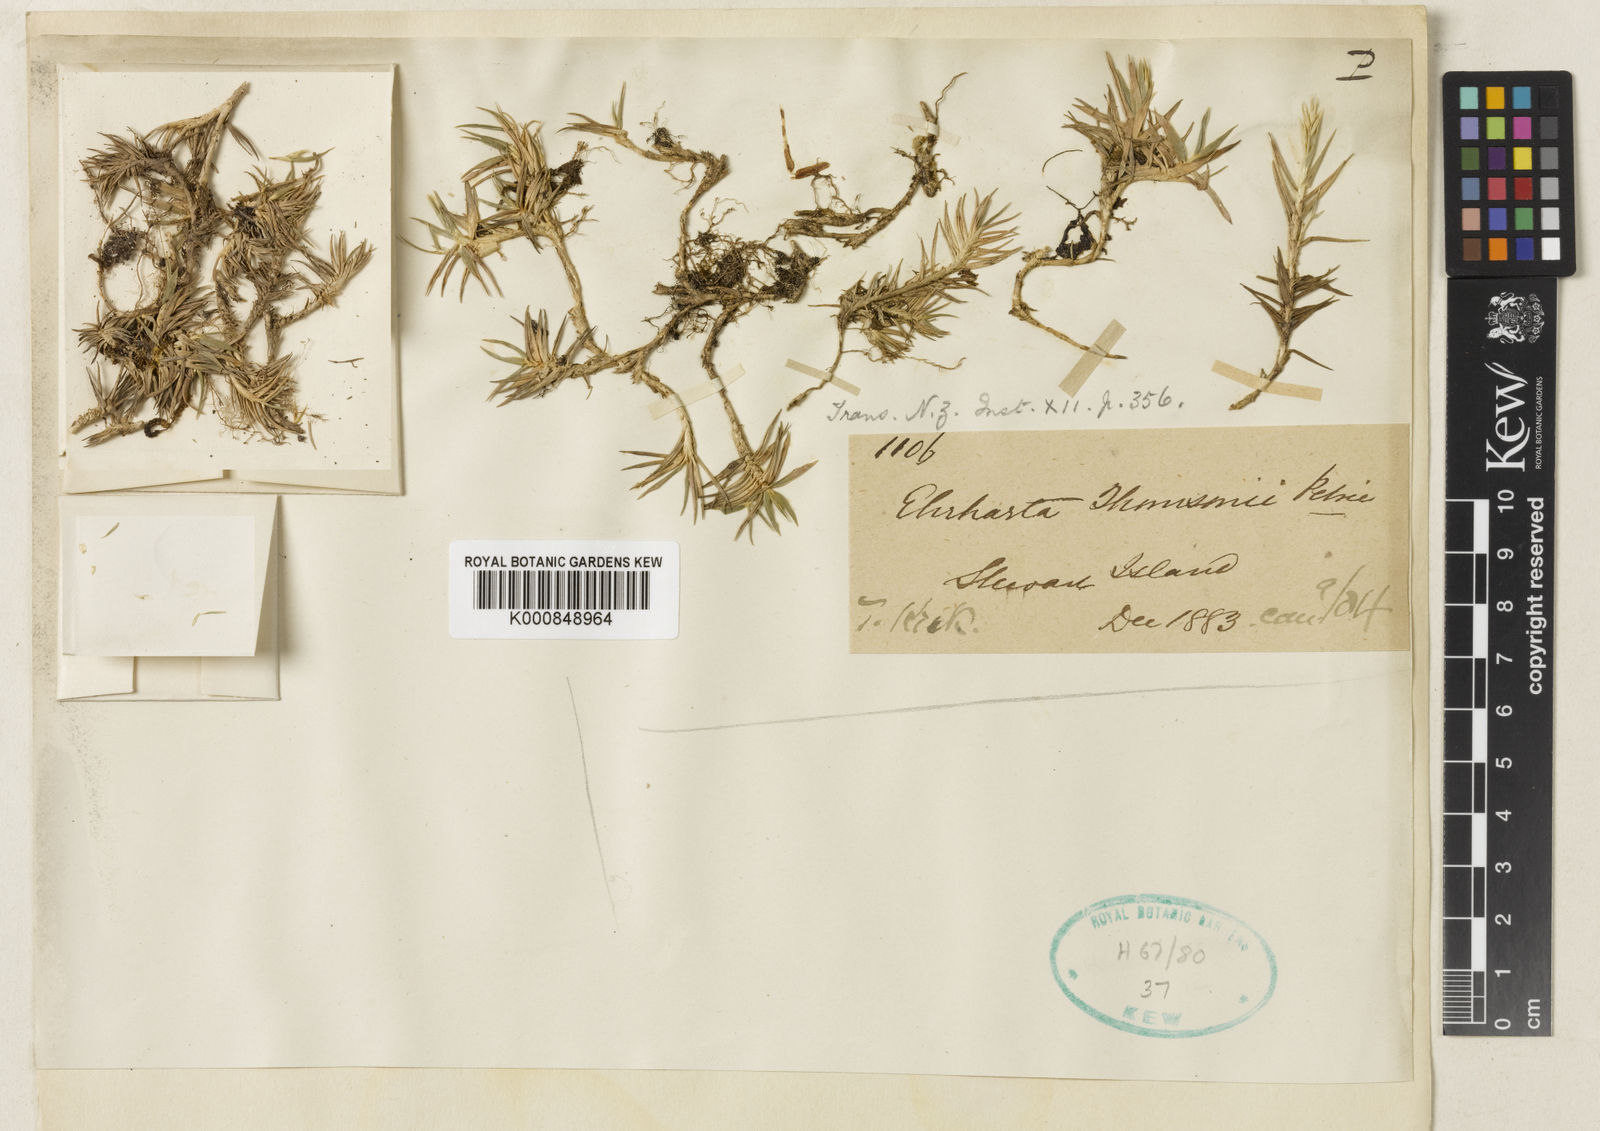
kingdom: Plantae
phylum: Tracheophyta
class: Liliopsida
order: Poales
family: Poaceae
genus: Zotovia
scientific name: Zotovia thomsonii
